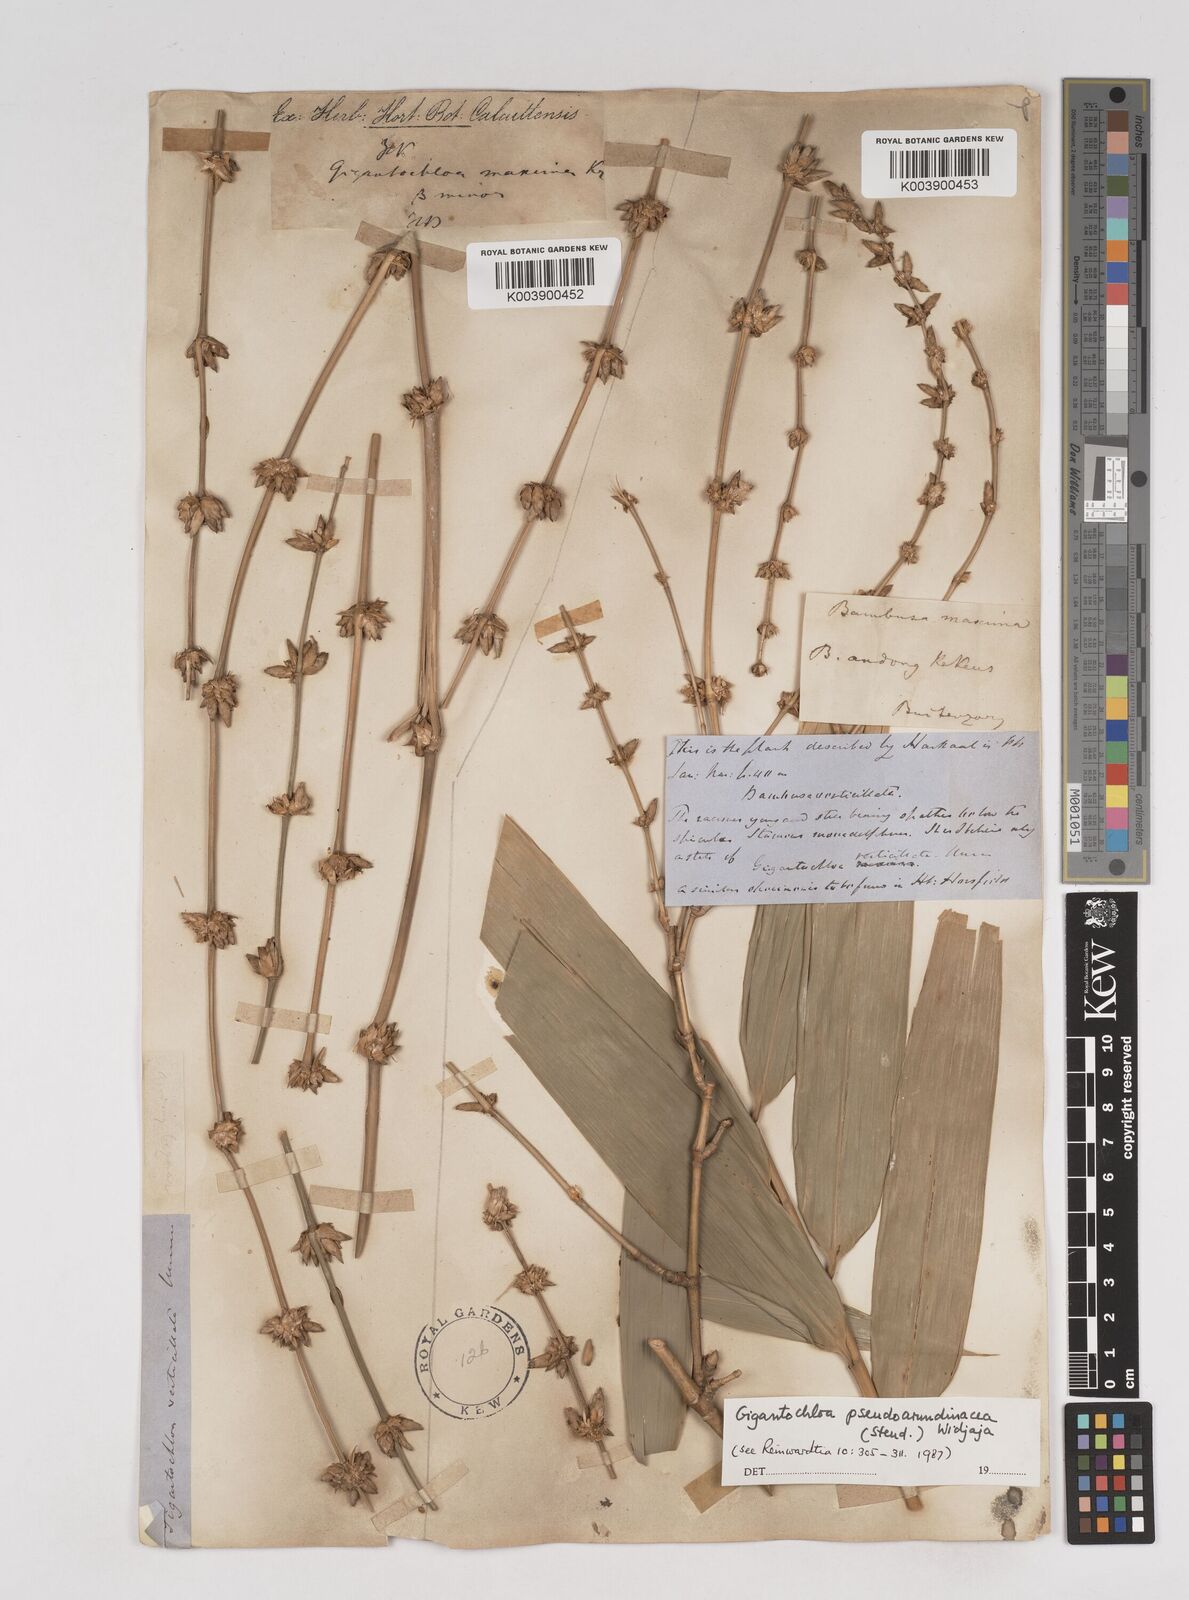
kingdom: Plantae
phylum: Tracheophyta
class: Liliopsida
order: Poales
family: Poaceae
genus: Gigantochloa
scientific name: Gigantochloa verticillata
